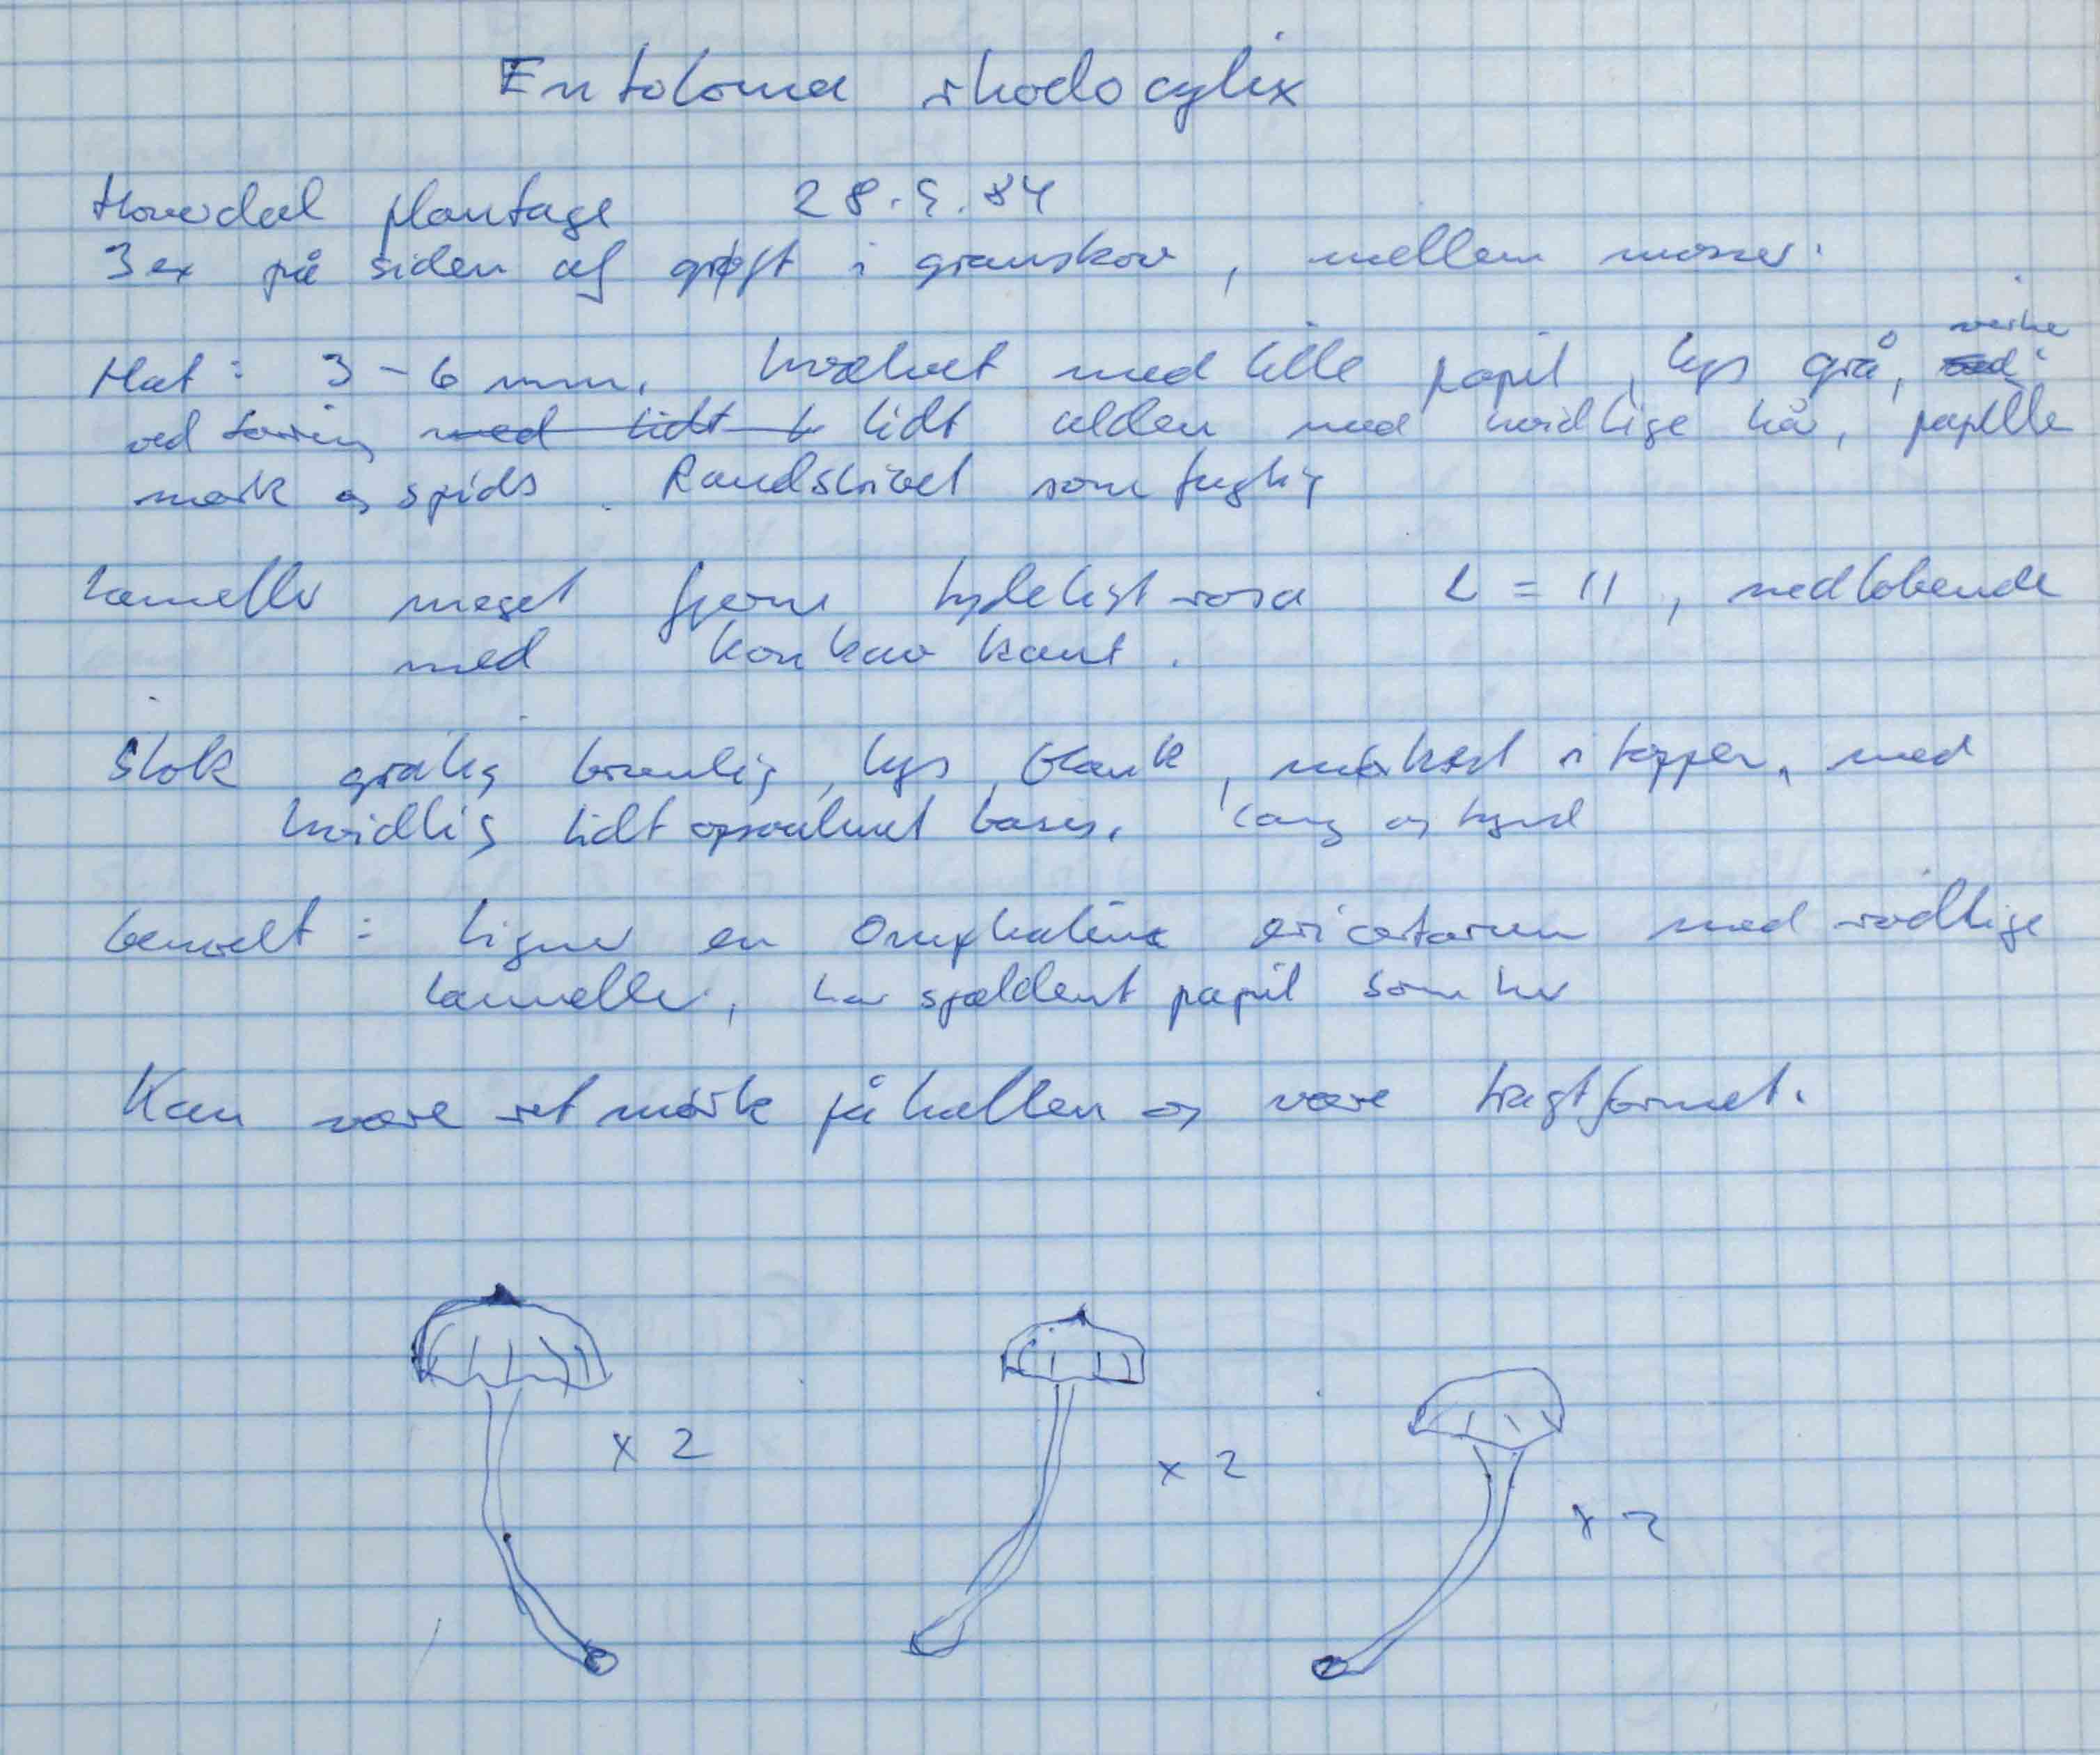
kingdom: Fungi
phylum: Basidiomycota
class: Agaricomycetes
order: Agaricales
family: Entolomataceae
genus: Entoloma
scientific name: Entoloma rhodocylix
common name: fjernbladet rødblad
